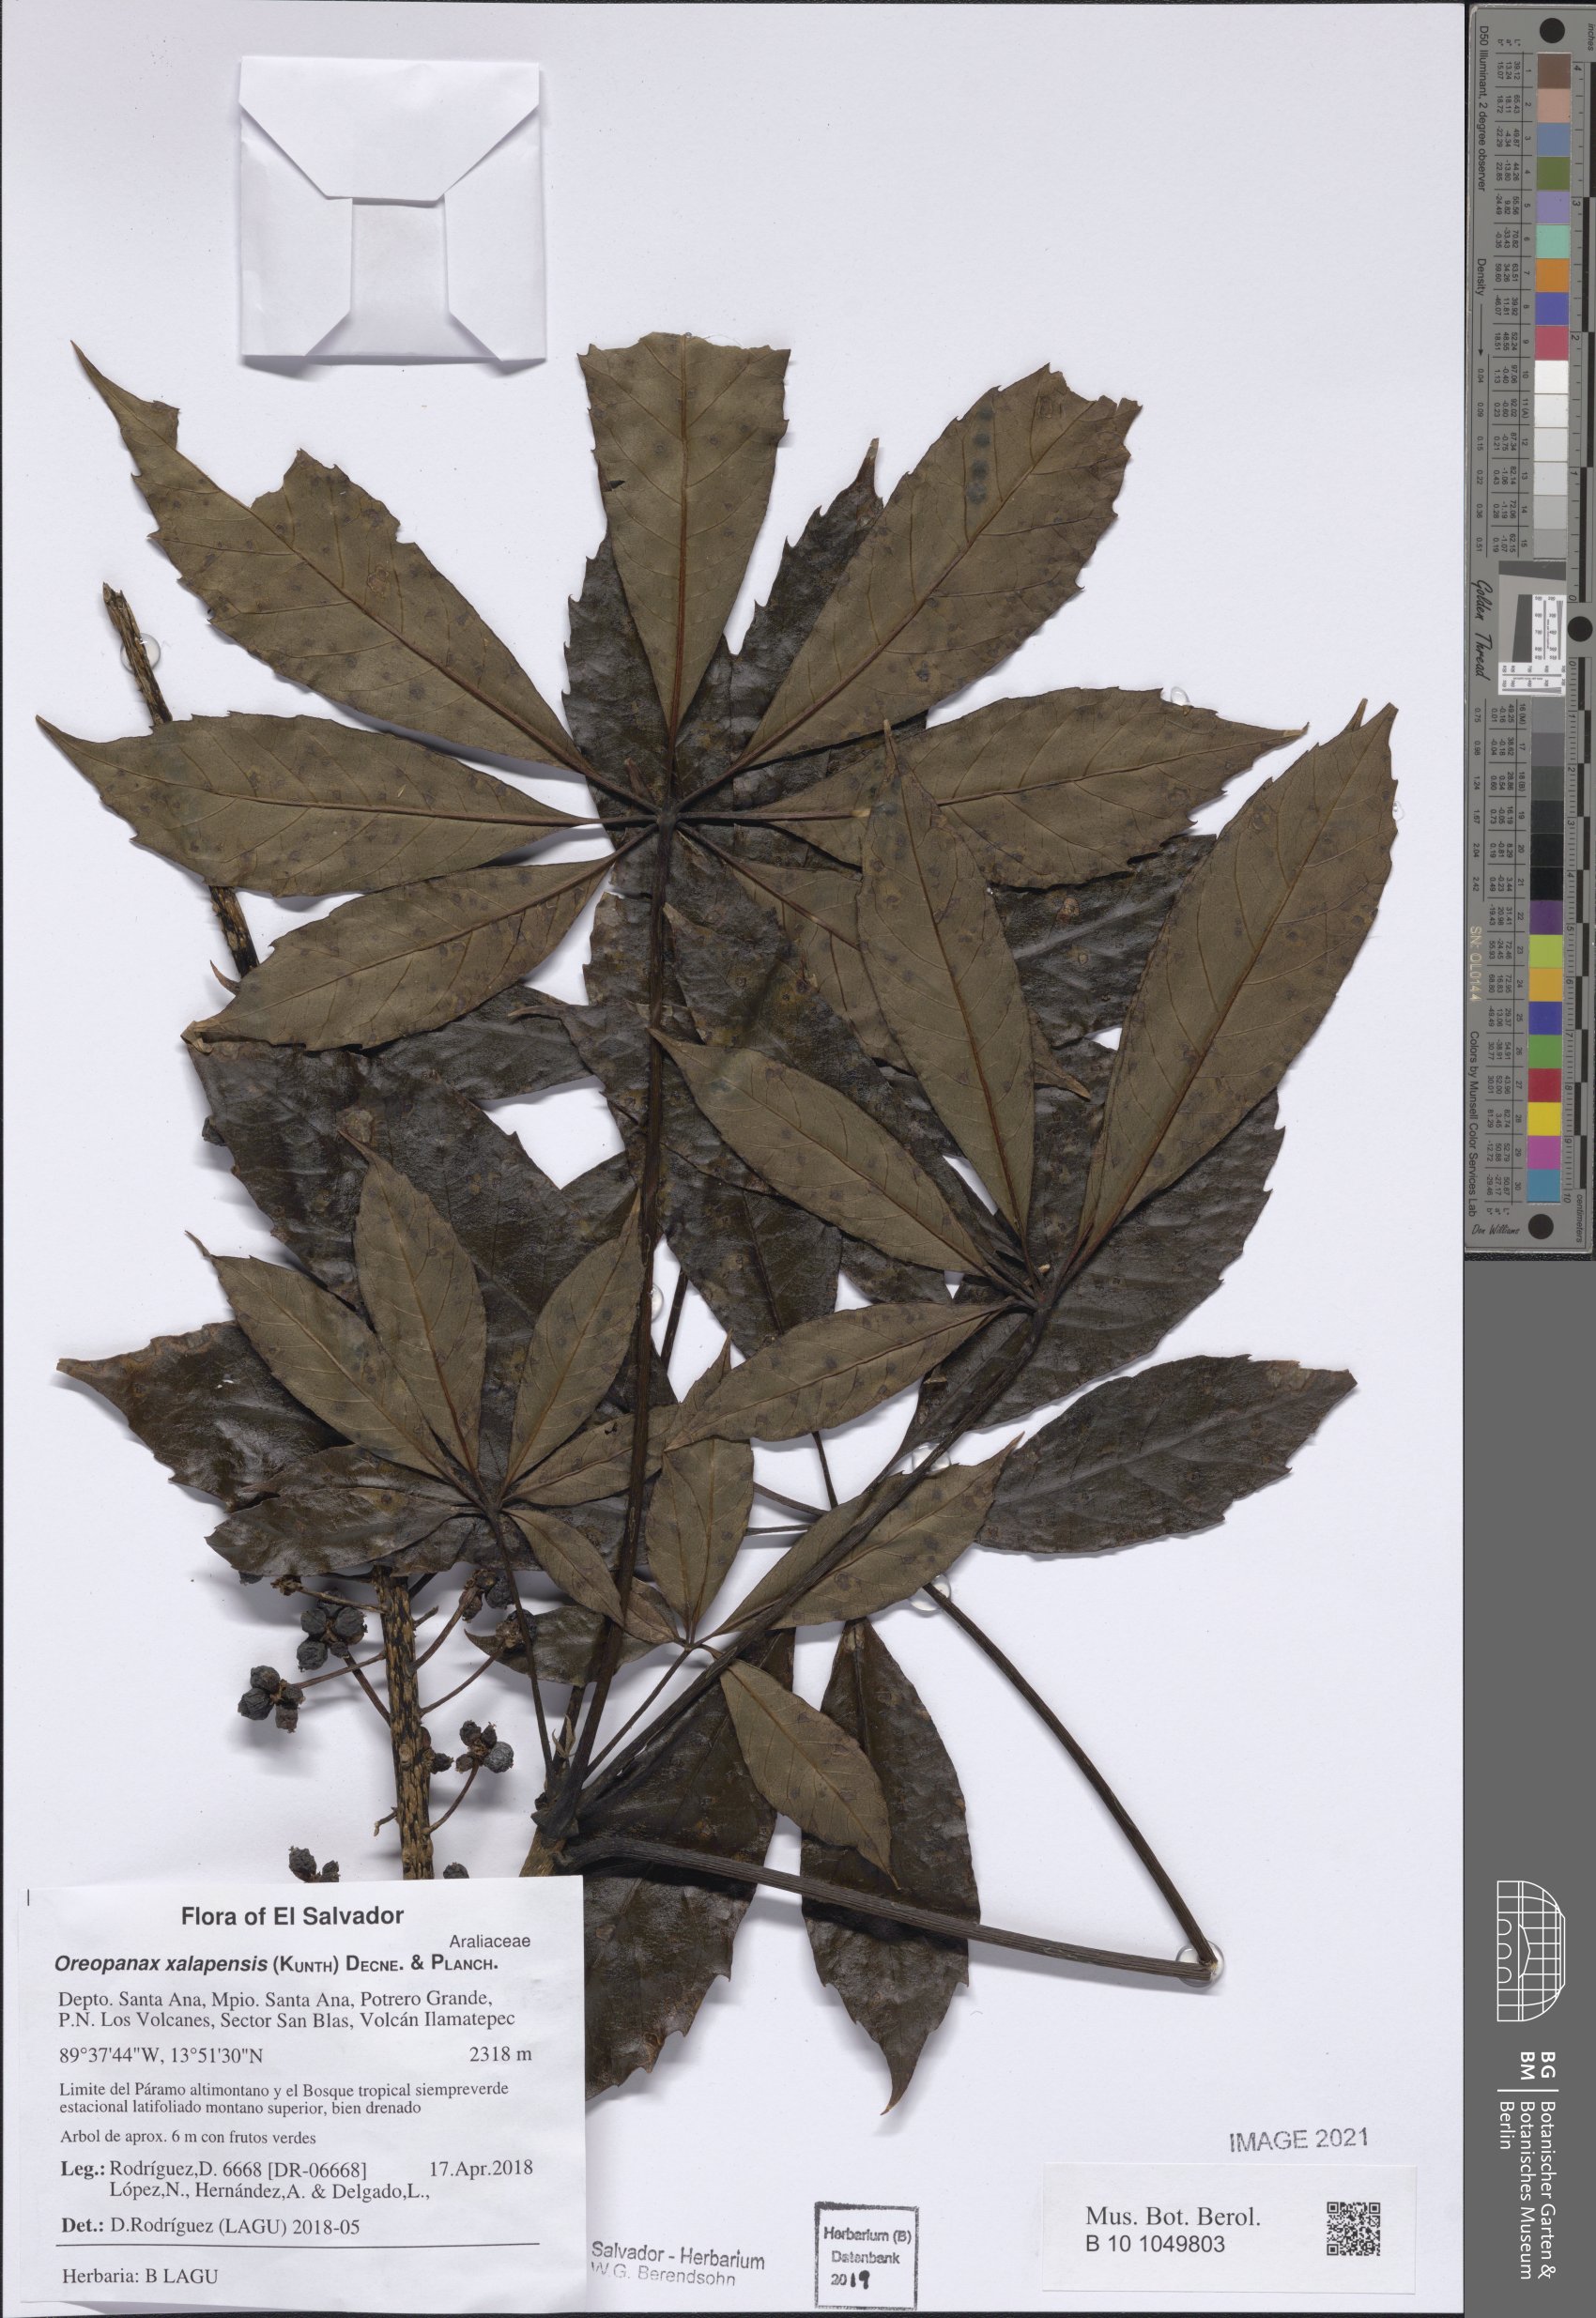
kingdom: Plantae
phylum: Tracheophyta
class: Magnoliopsida
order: Apiales
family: Araliaceae
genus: Oreopanax
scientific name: Oreopanax xalapensis
